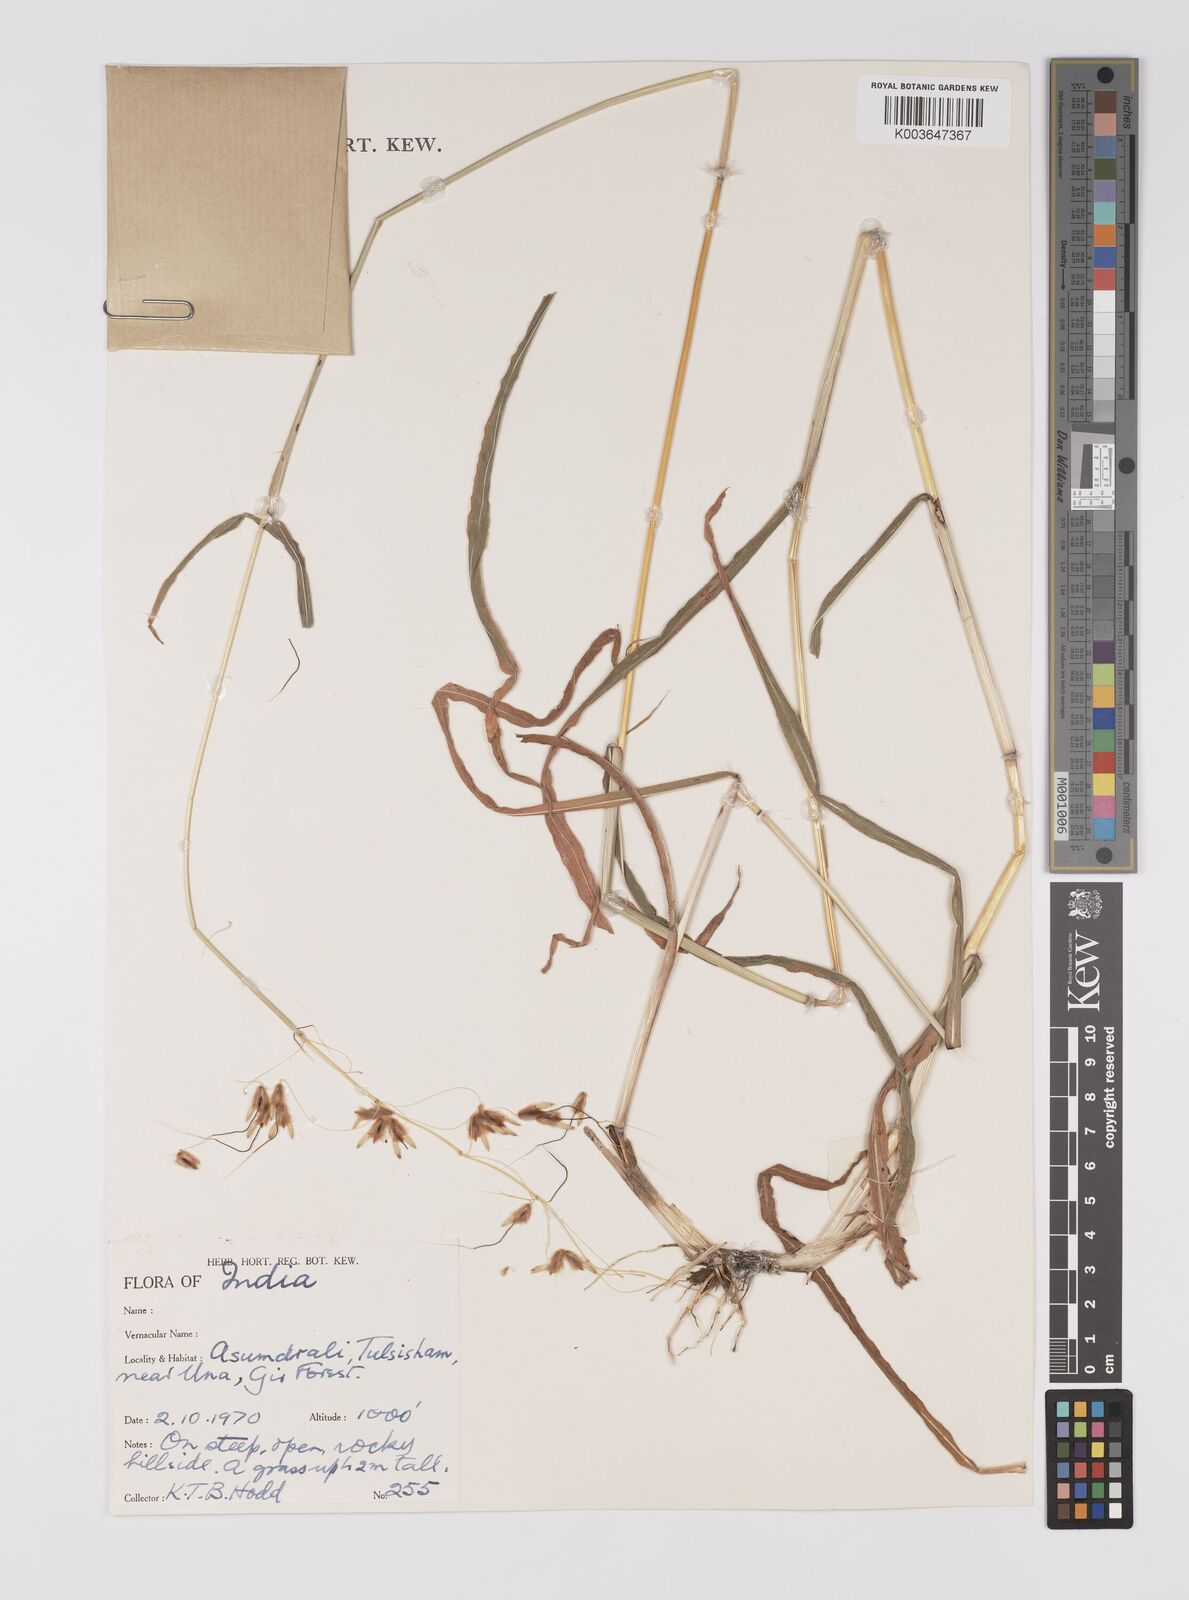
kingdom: Plantae
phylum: Tracheophyta
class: Liliopsida
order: Poales
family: Poaceae
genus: Sarga
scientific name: Sarga purpureosericea
